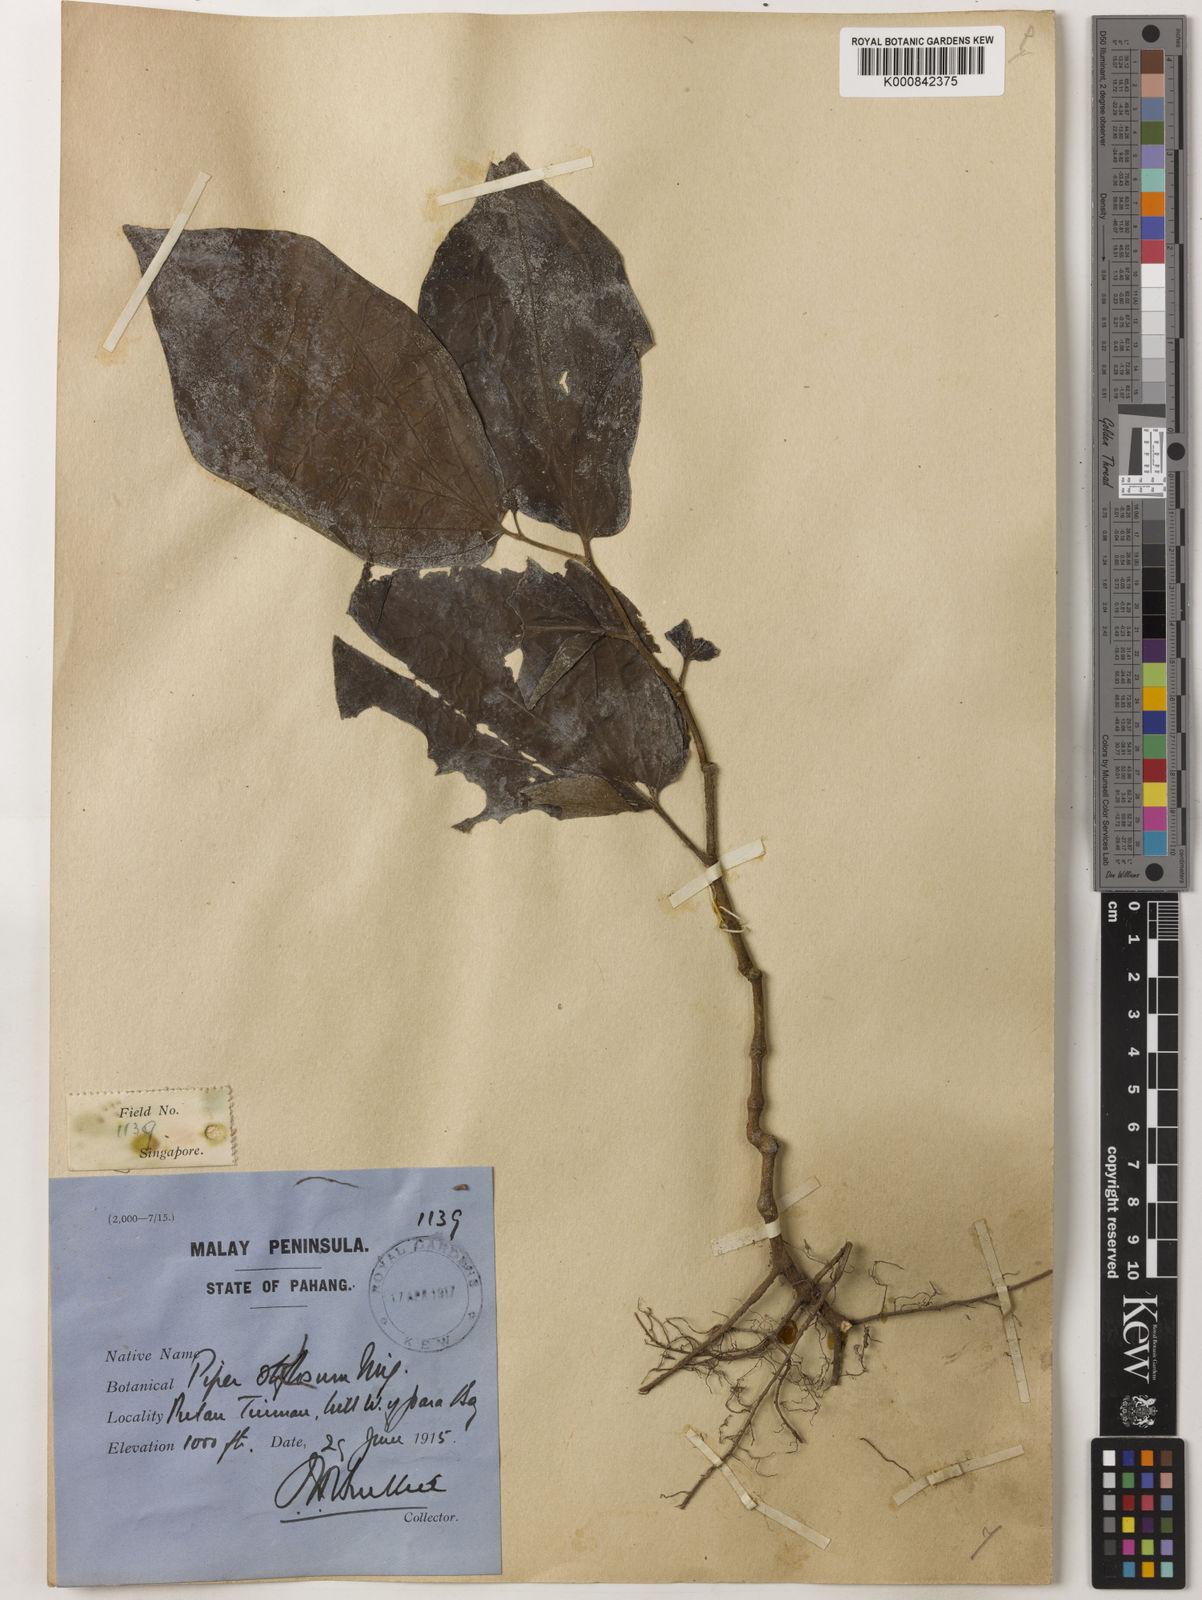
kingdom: Plantae
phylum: Tracheophyta
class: Magnoliopsida
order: Piperales
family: Piperaceae
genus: Piper
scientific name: Piper rostratum
